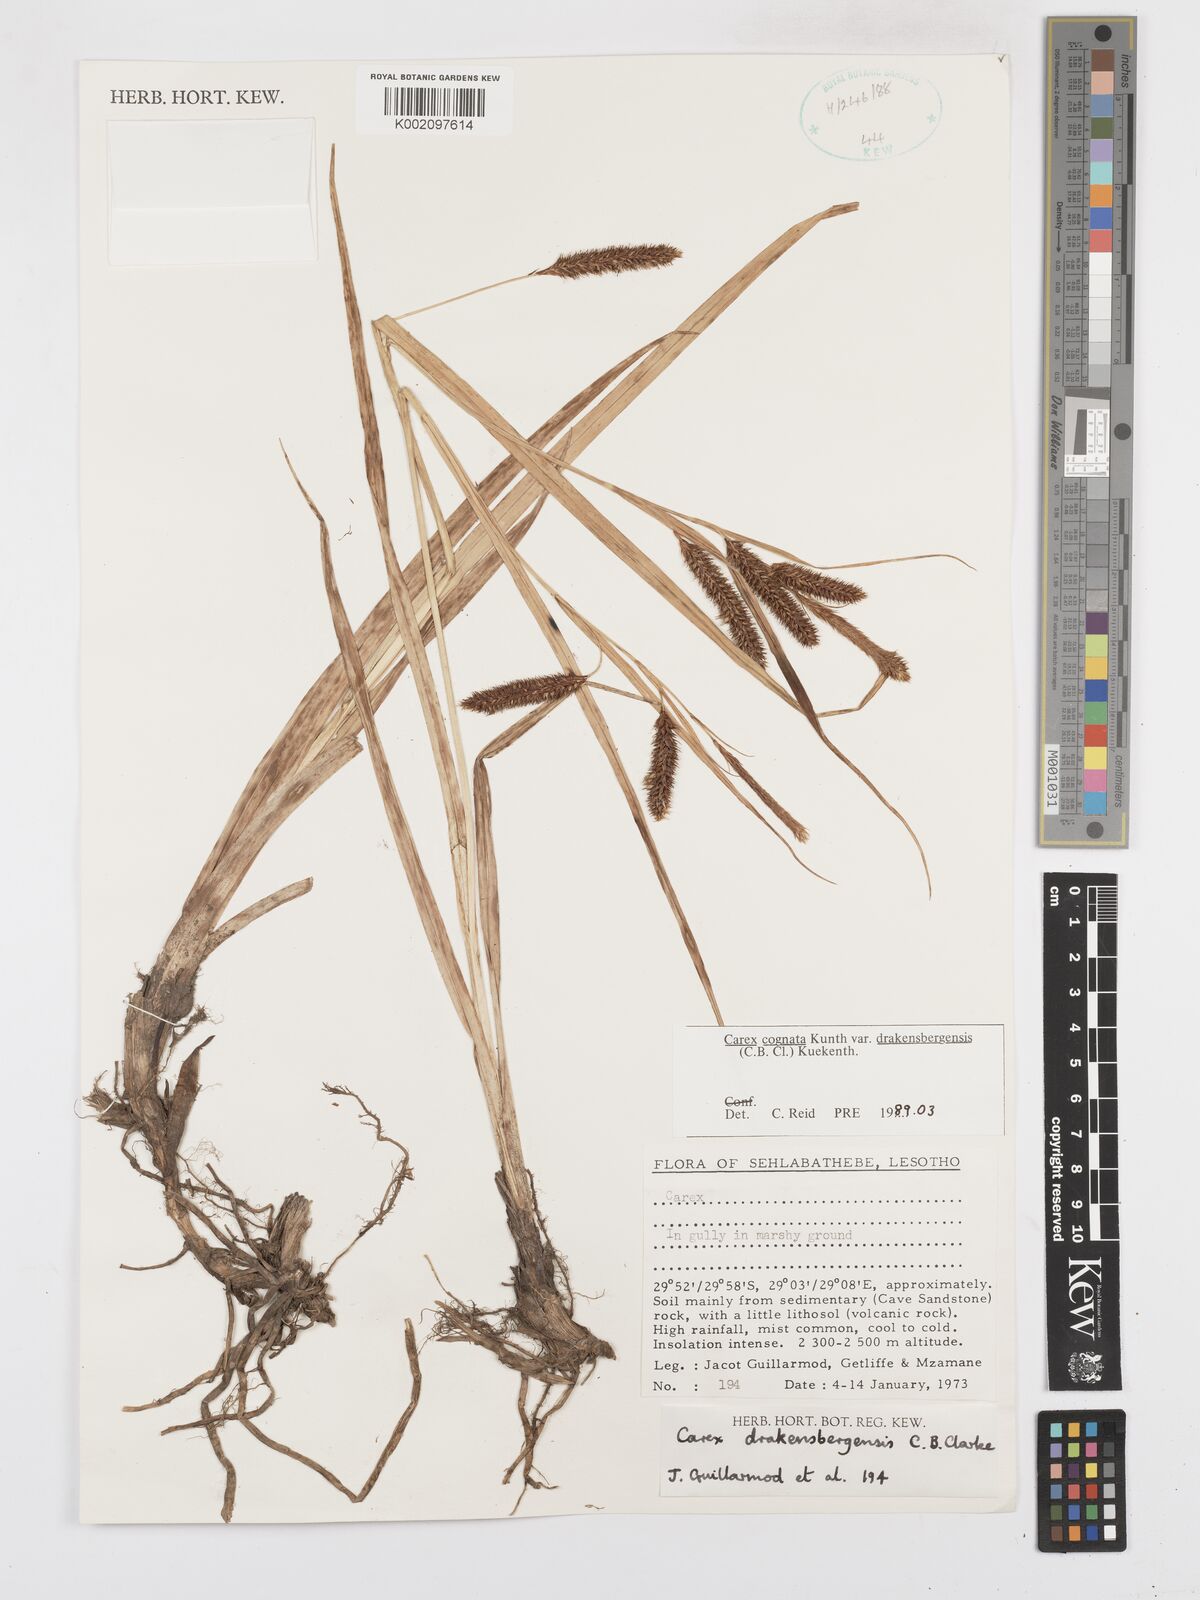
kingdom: Plantae
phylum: Tracheophyta
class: Liliopsida
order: Poales
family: Cyperaceae
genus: Carex
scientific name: Carex cognata
